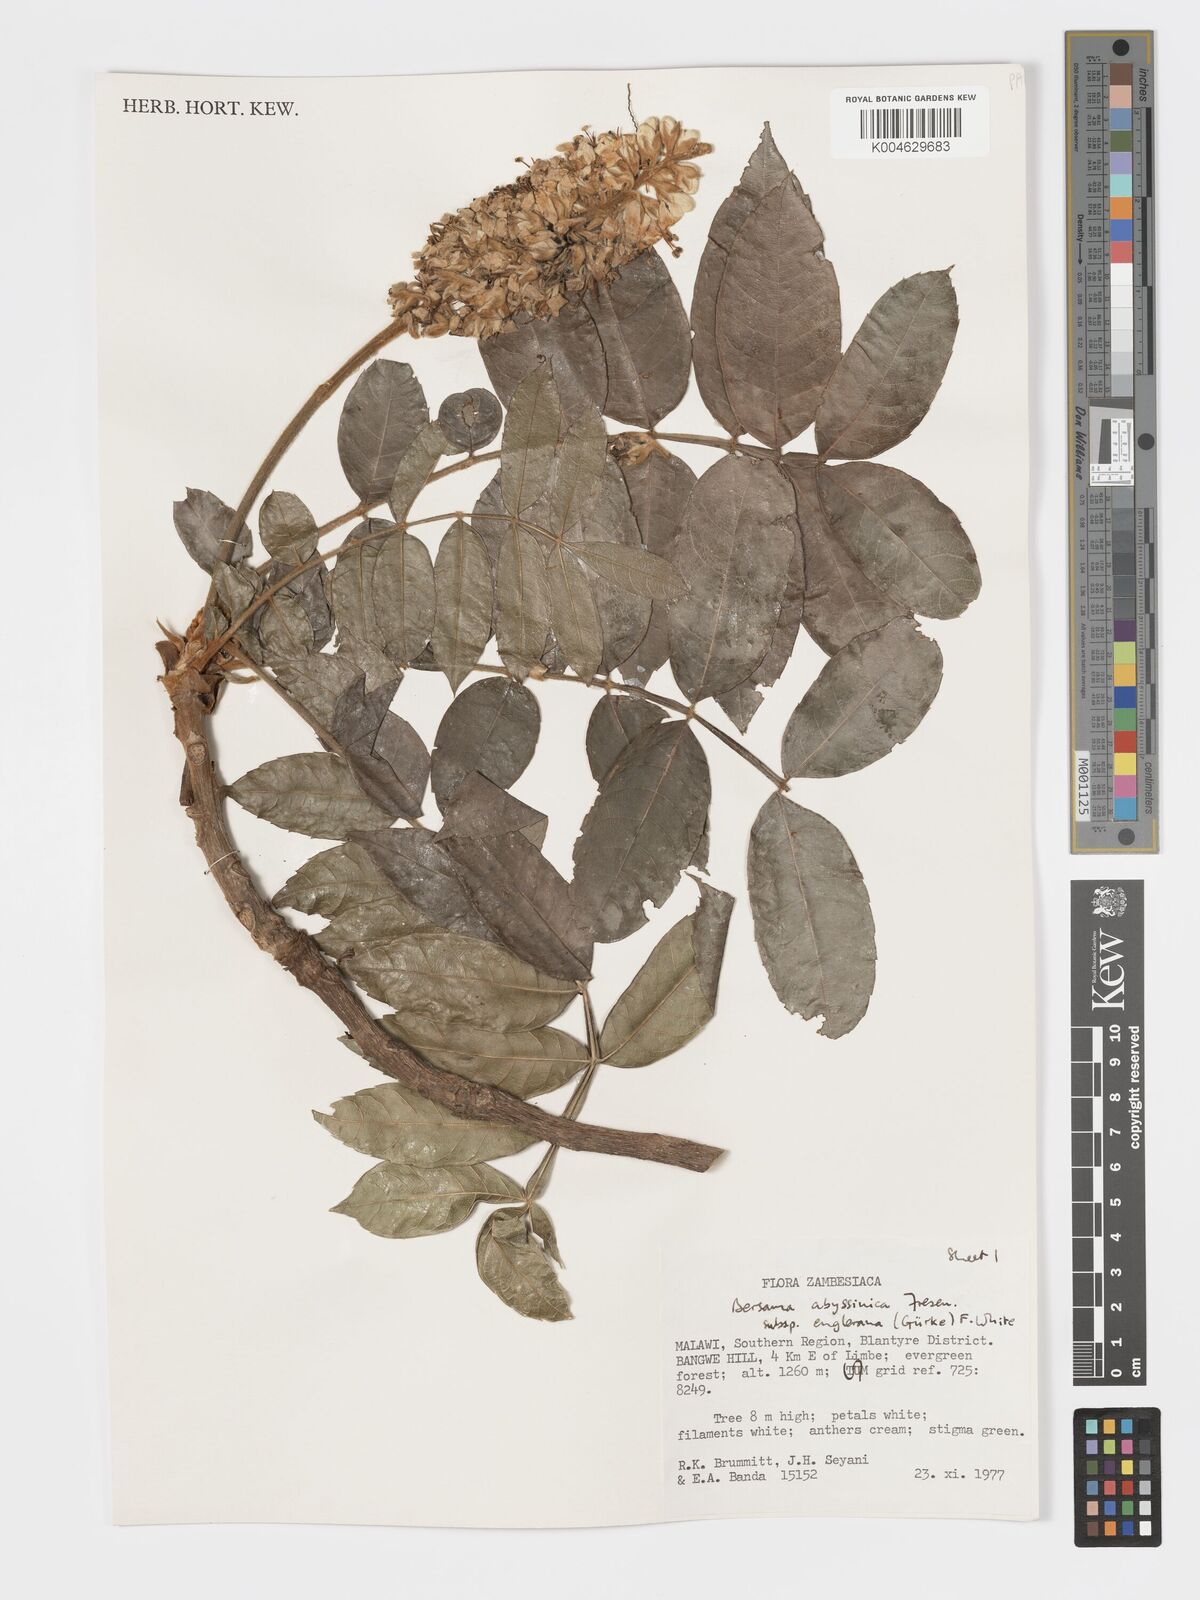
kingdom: Plantae
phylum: Tracheophyta
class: Magnoliopsida
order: Geraniales
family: Melianthaceae
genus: Bersama
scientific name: Bersama abyssinica
